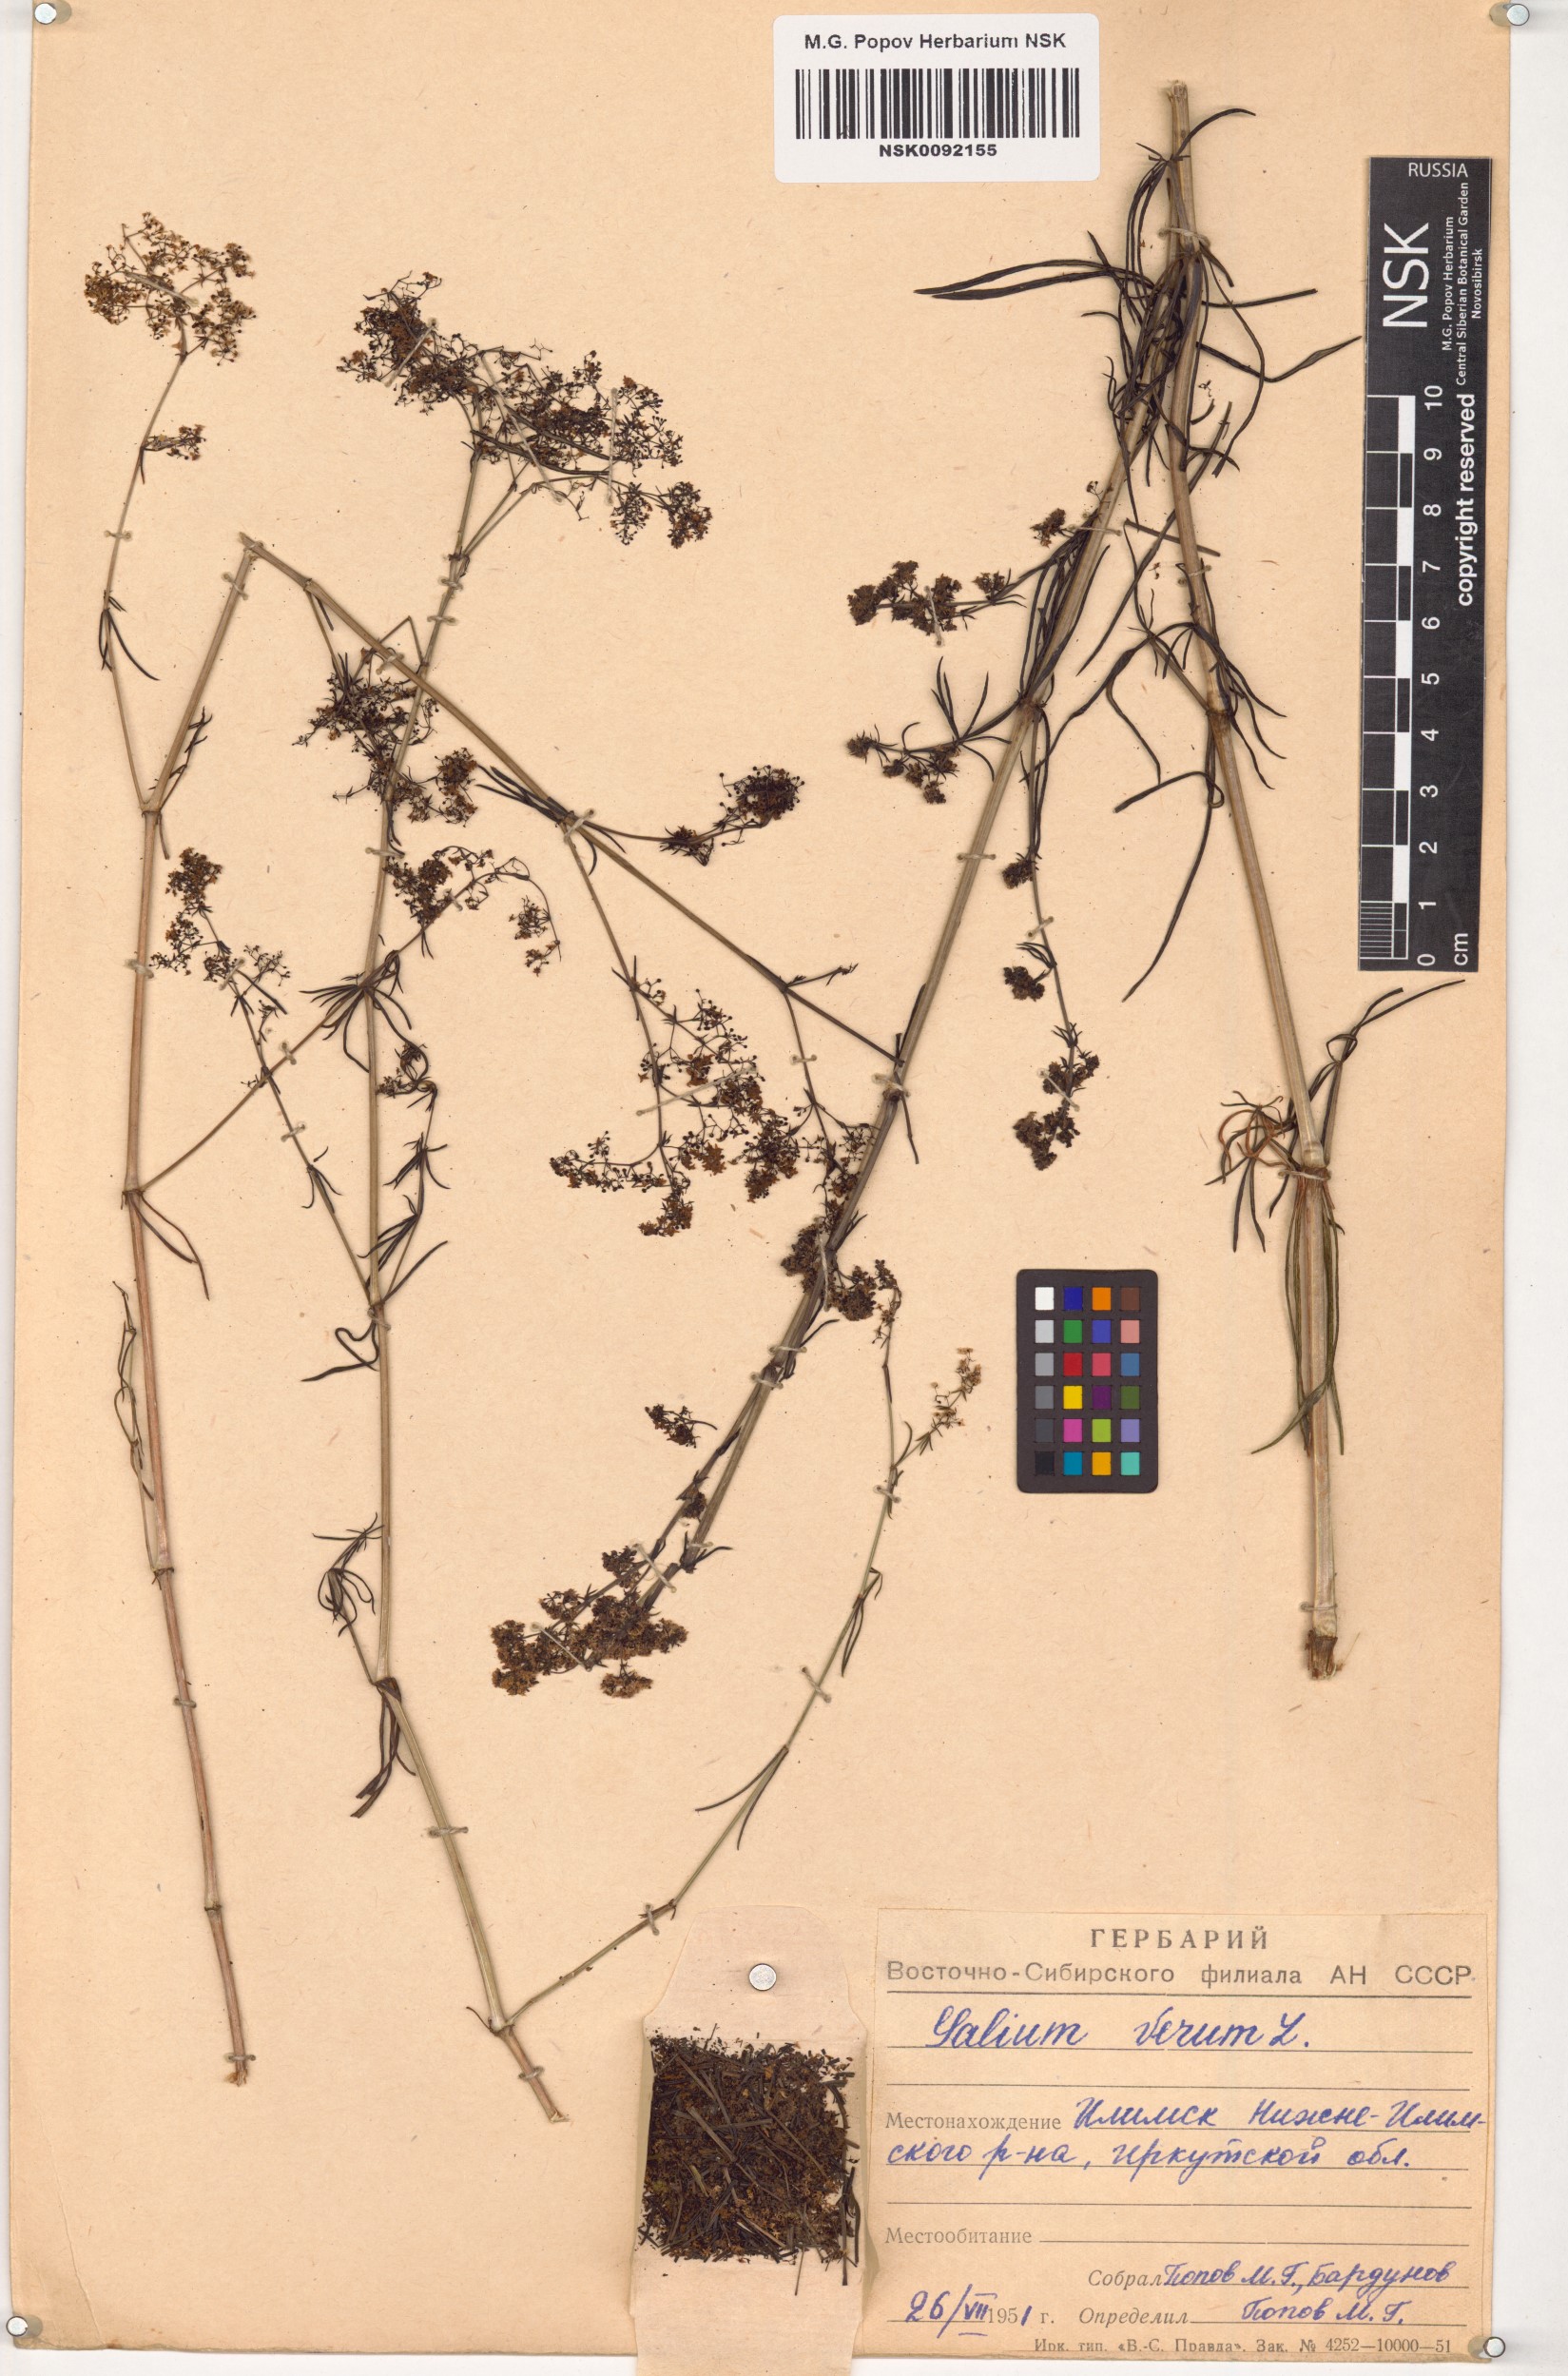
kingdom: Plantae
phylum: Tracheophyta
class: Magnoliopsida
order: Gentianales
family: Rubiaceae
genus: Galium
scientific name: Galium verum
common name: Lady's bedstraw
